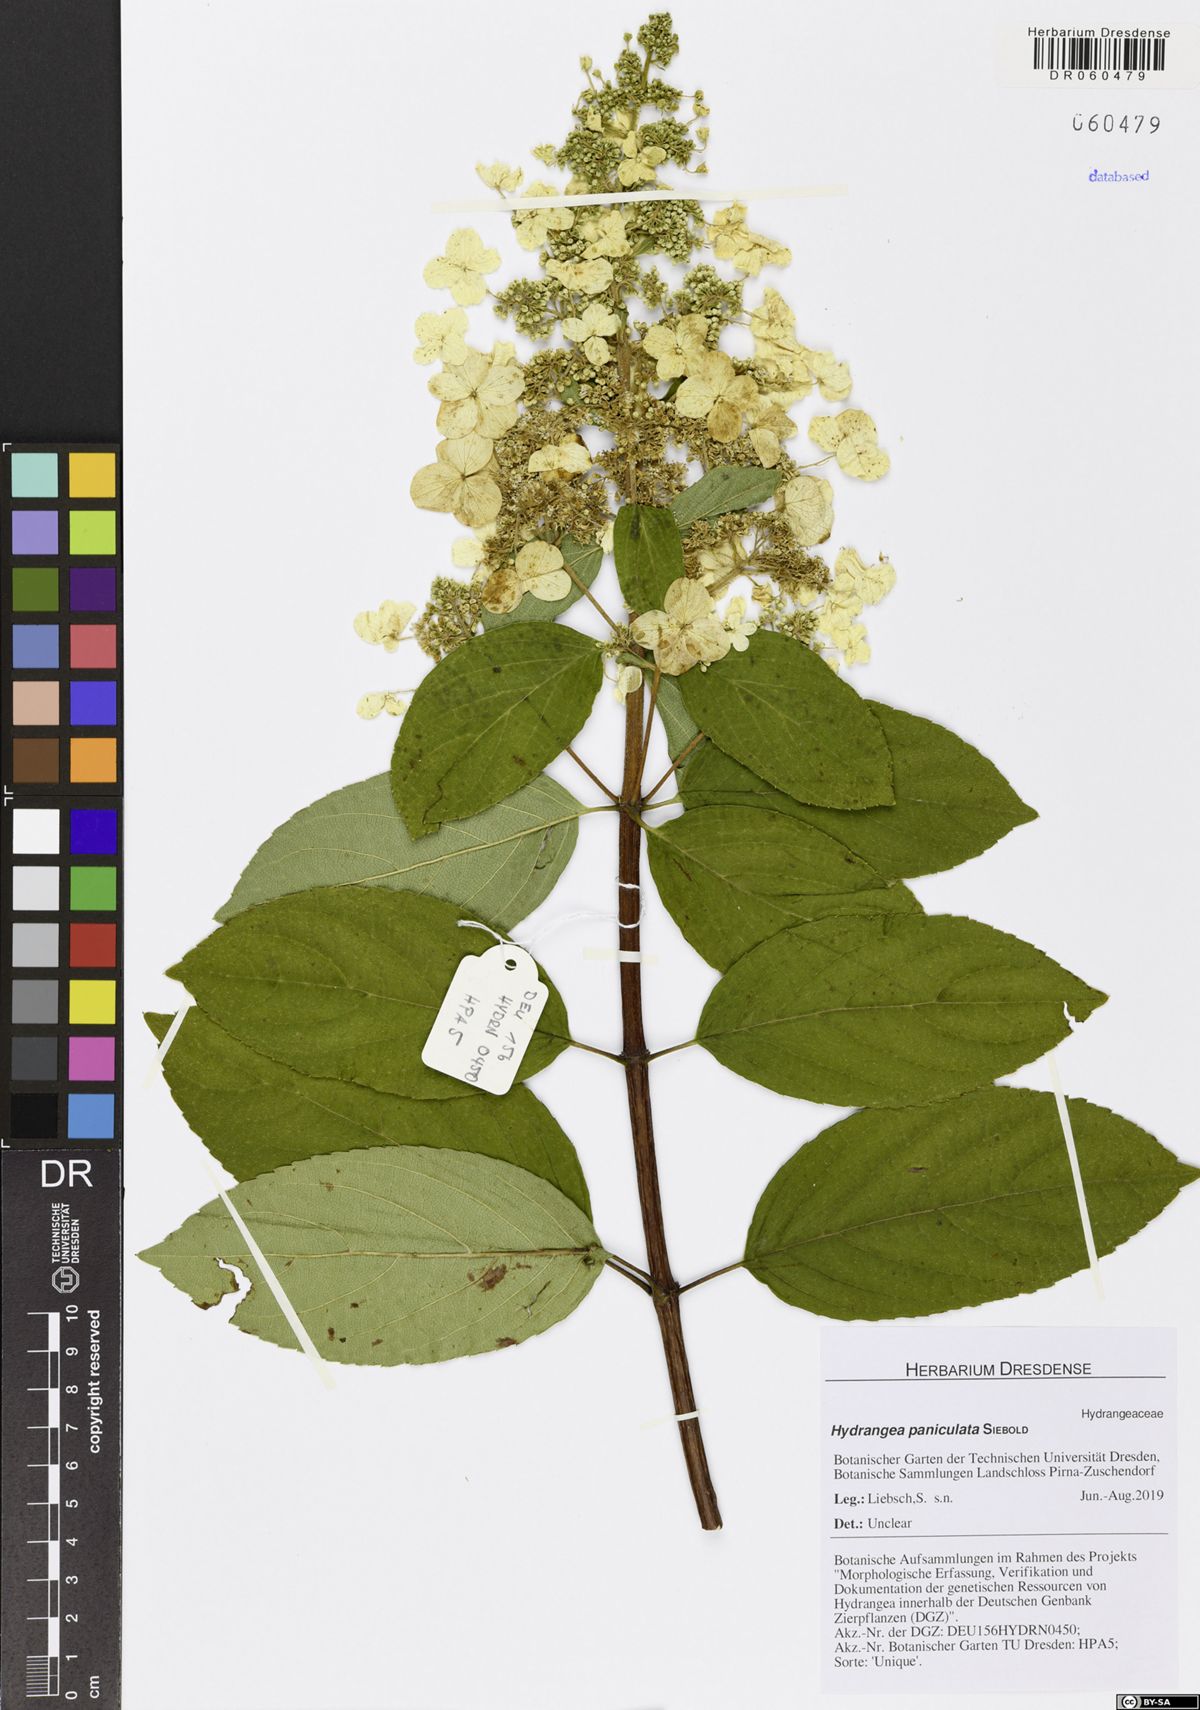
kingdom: Plantae
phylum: Tracheophyta
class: Magnoliopsida
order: Cornales
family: Hydrangeaceae
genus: Hydrangea
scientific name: Hydrangea paniculata
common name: Panicled hydrangea
